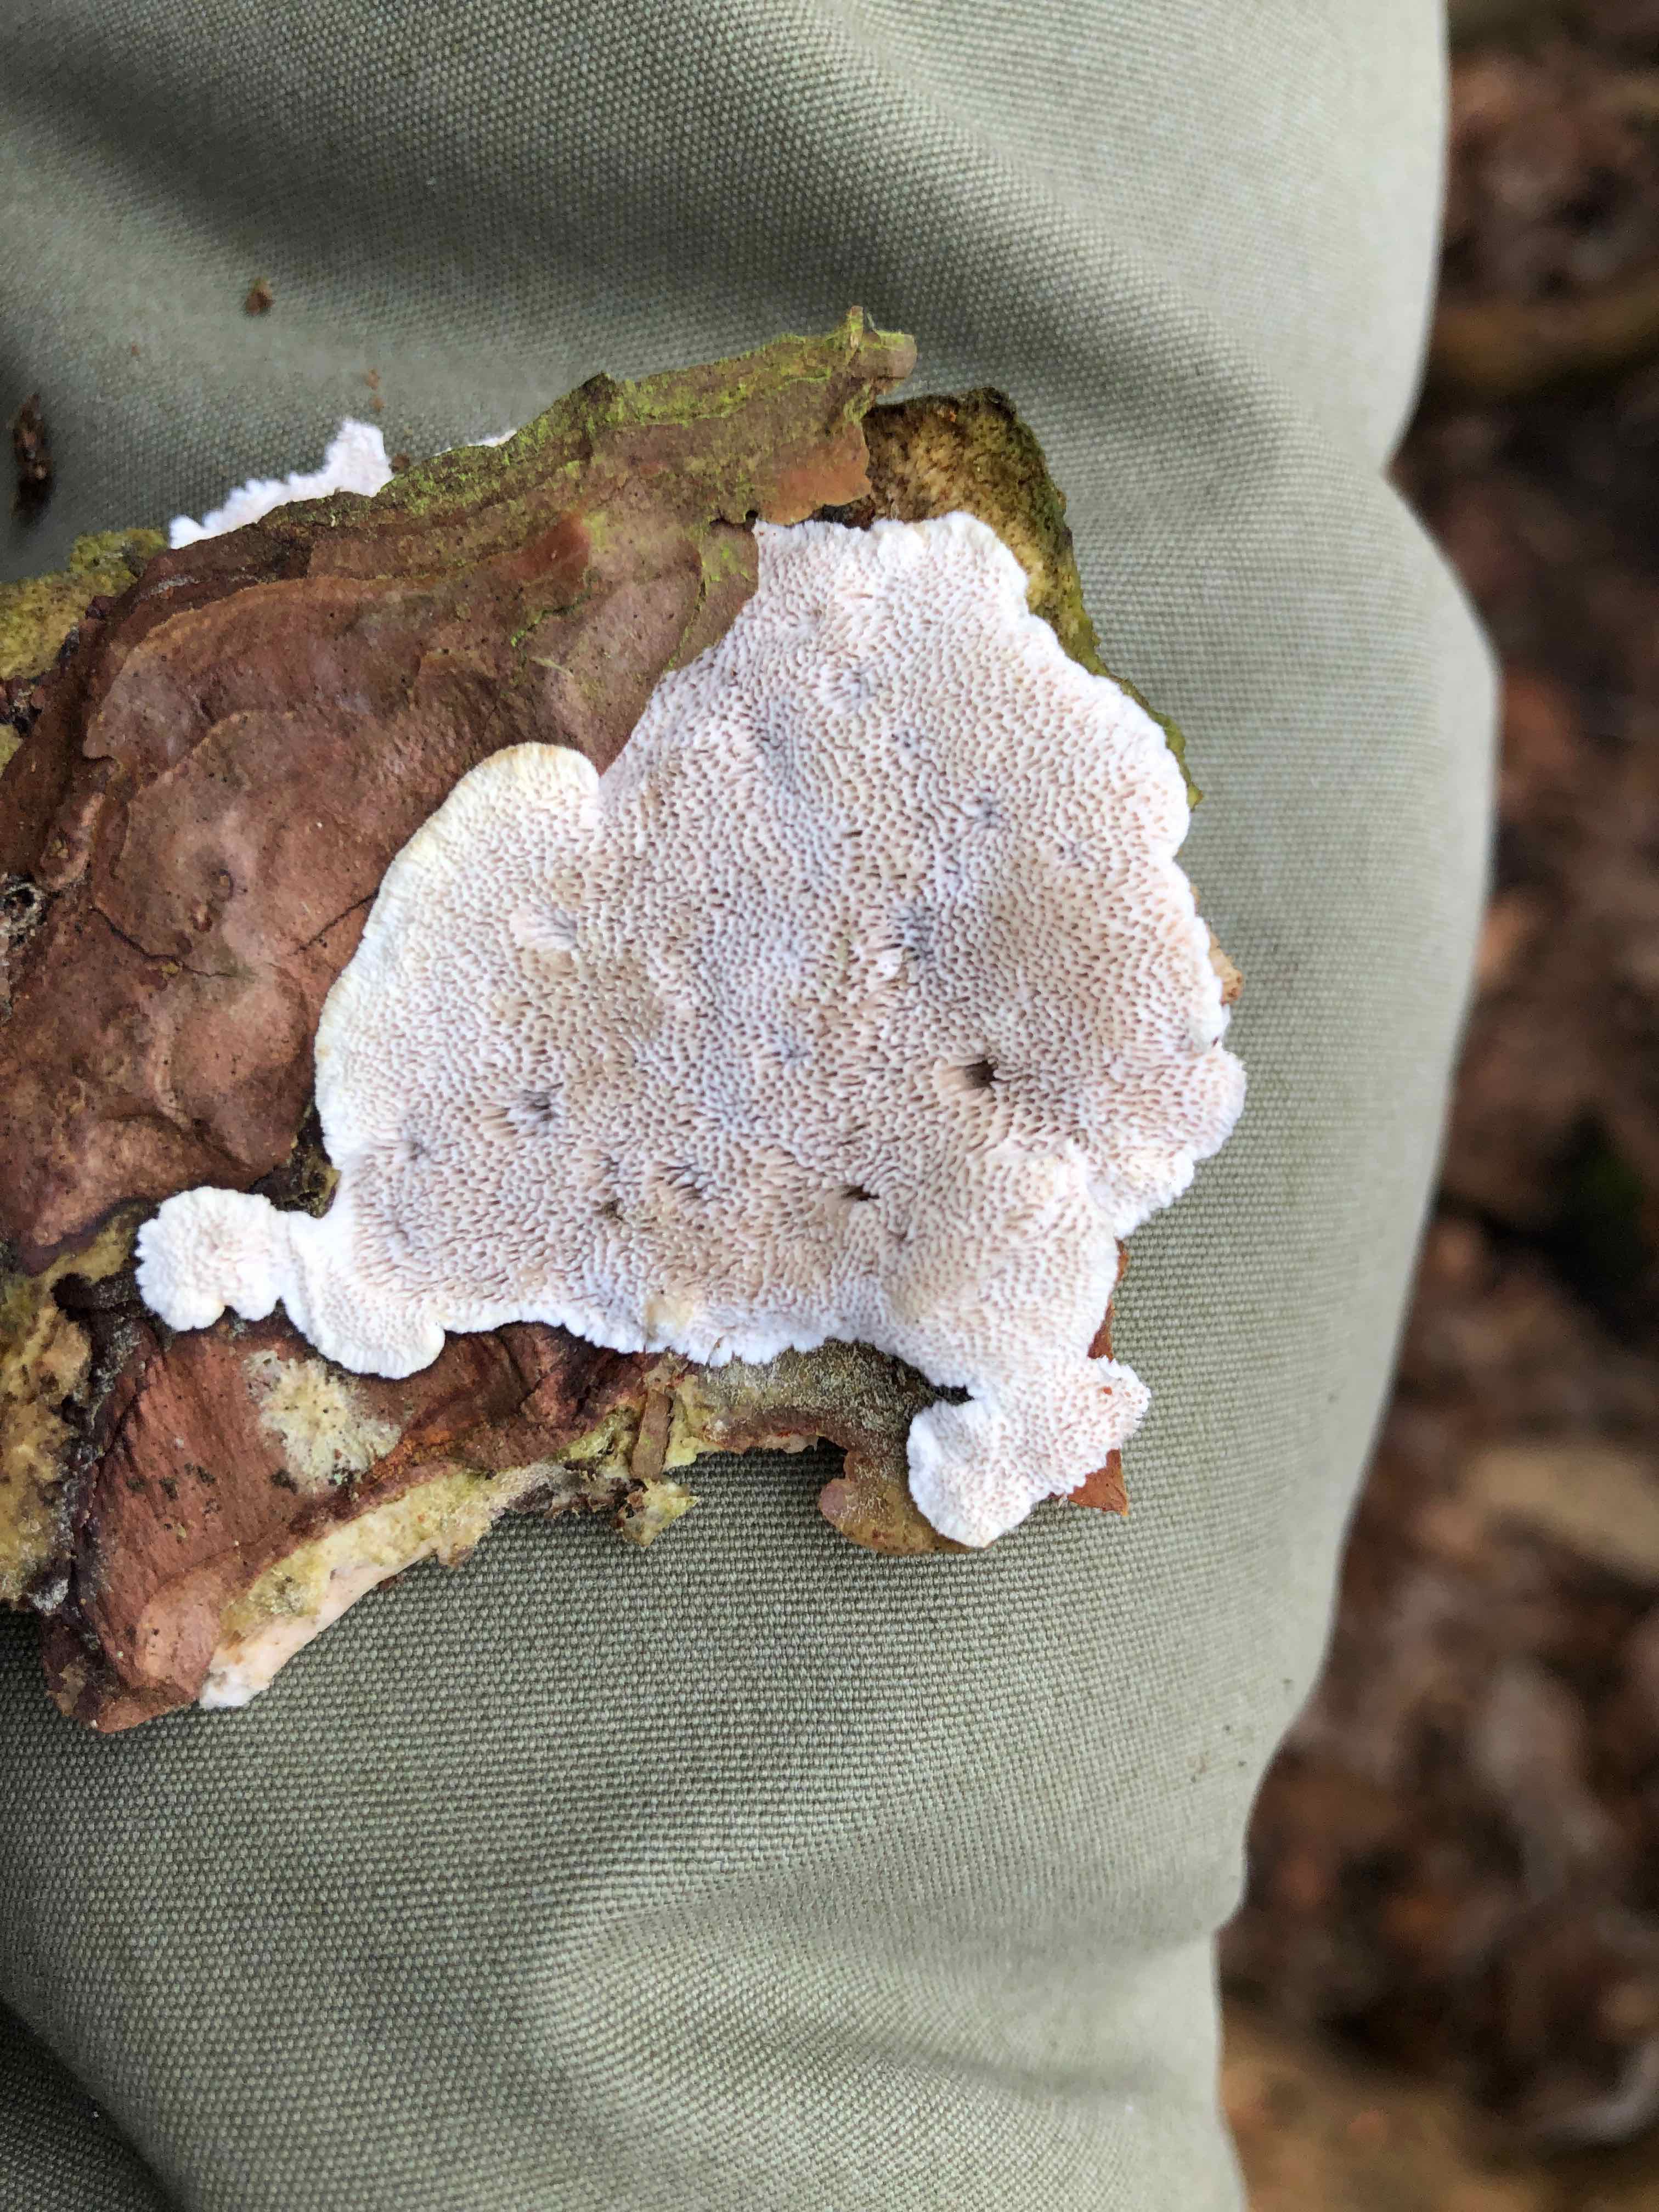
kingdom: Fungi
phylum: Basidiomycota
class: Agaricomycetes
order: Polyporales
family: Gelatoporiaceae
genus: Cinereomyces
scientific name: Cinereomyces lindbladii
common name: almindelig gråporesvamp
